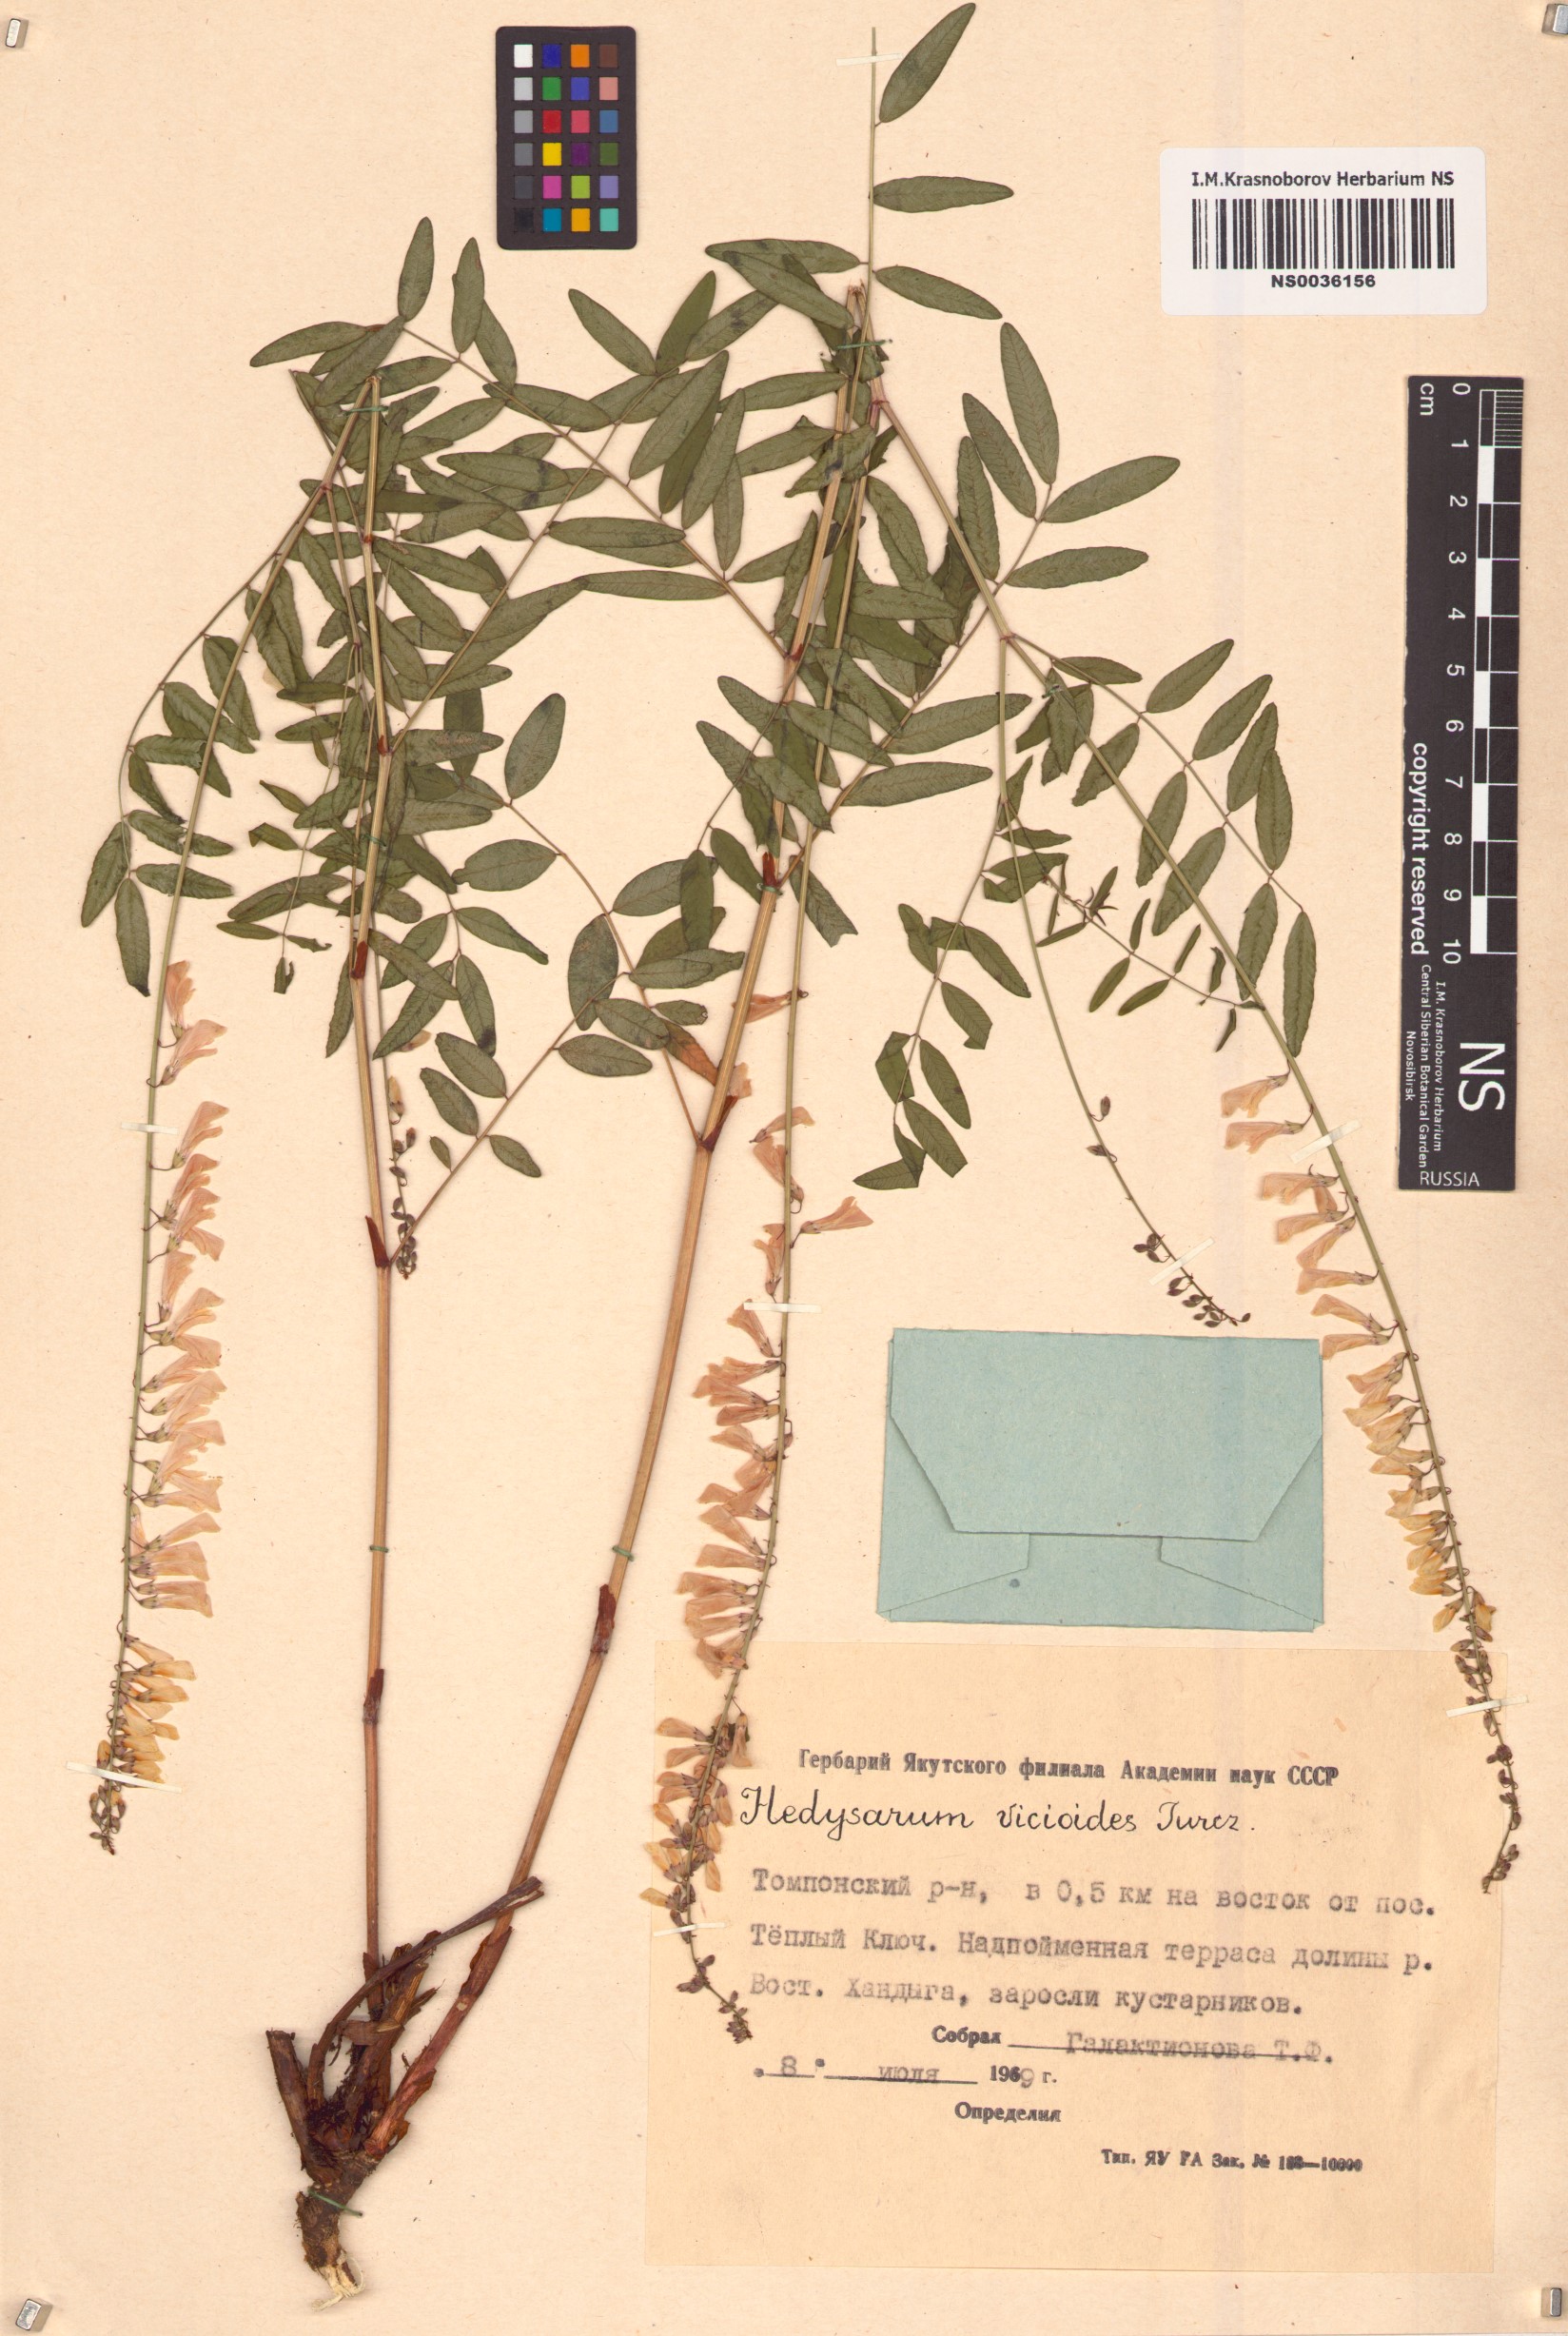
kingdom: Plantae
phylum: Tracheophyta
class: Magnoliopsida
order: Fabales
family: Fabaceae
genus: Hedysarum
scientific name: Hedysarum vicioides
